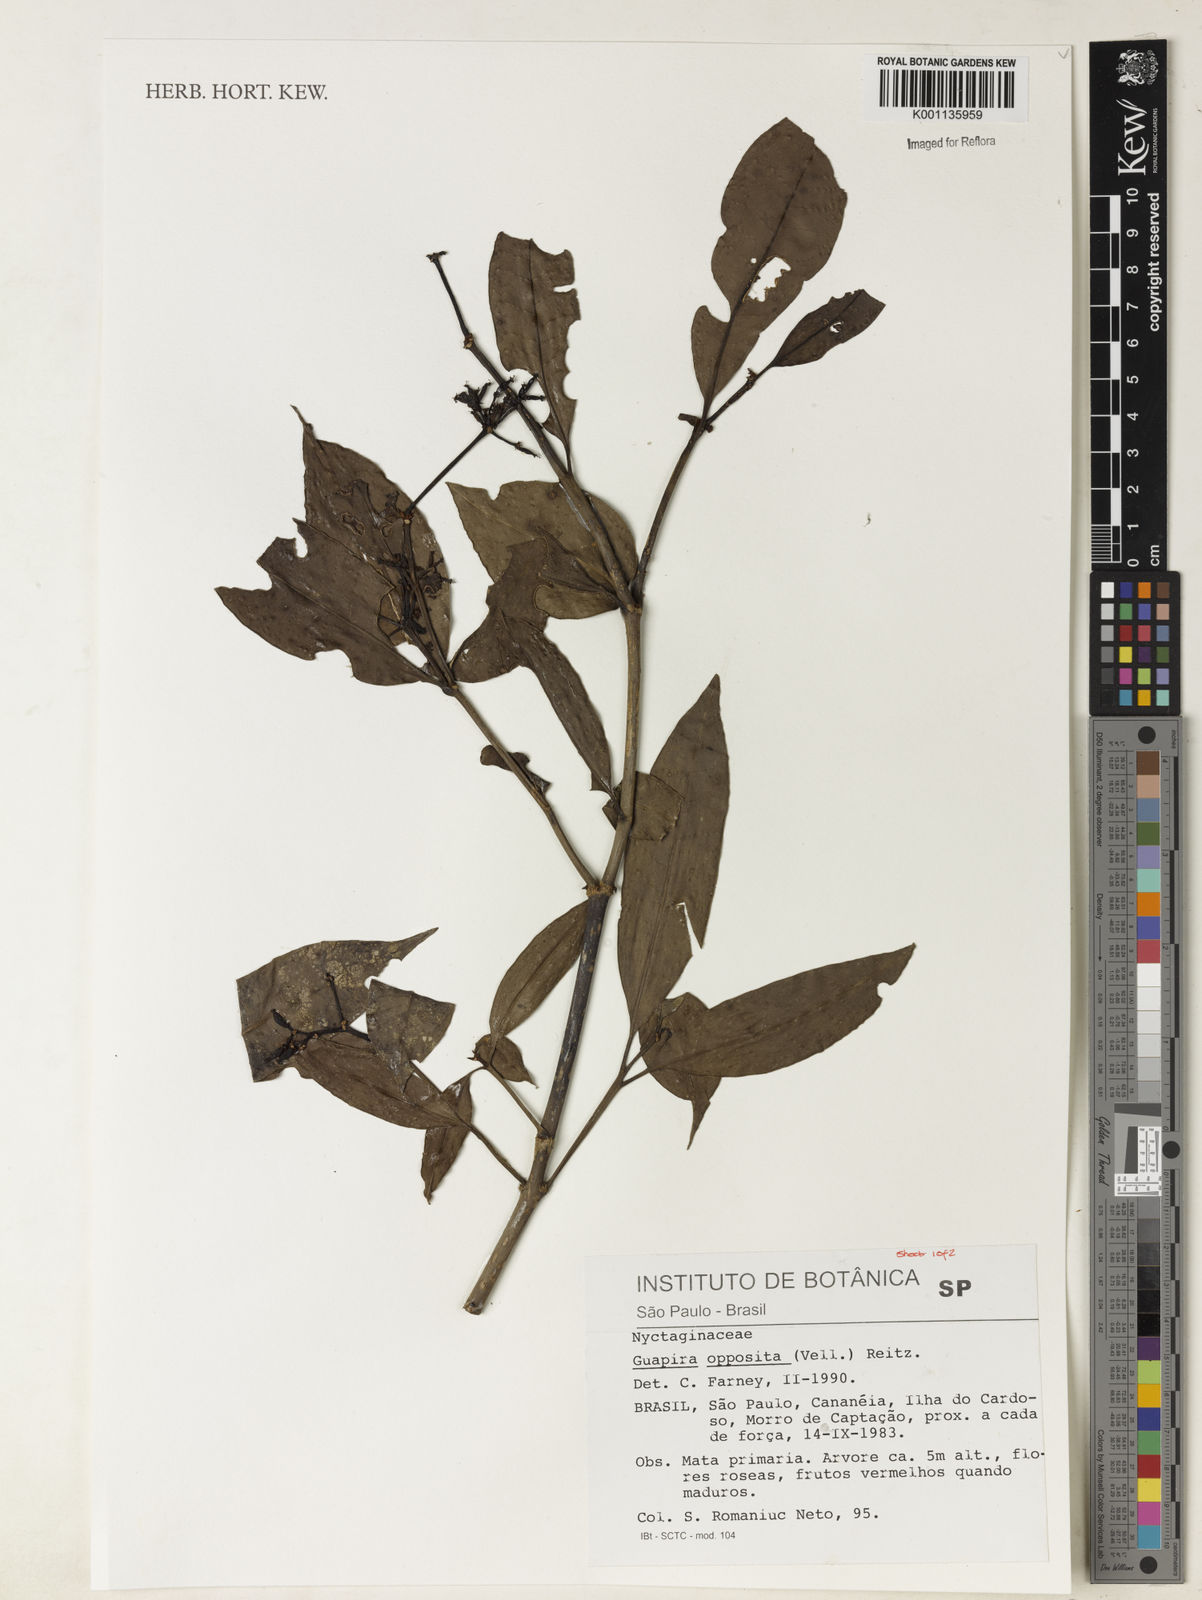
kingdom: Plantae
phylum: Tracheophyta
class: Magnoliopsida
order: Caryophyllales
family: Nyctaginaceae
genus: Guapira
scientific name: Guapira opposita
